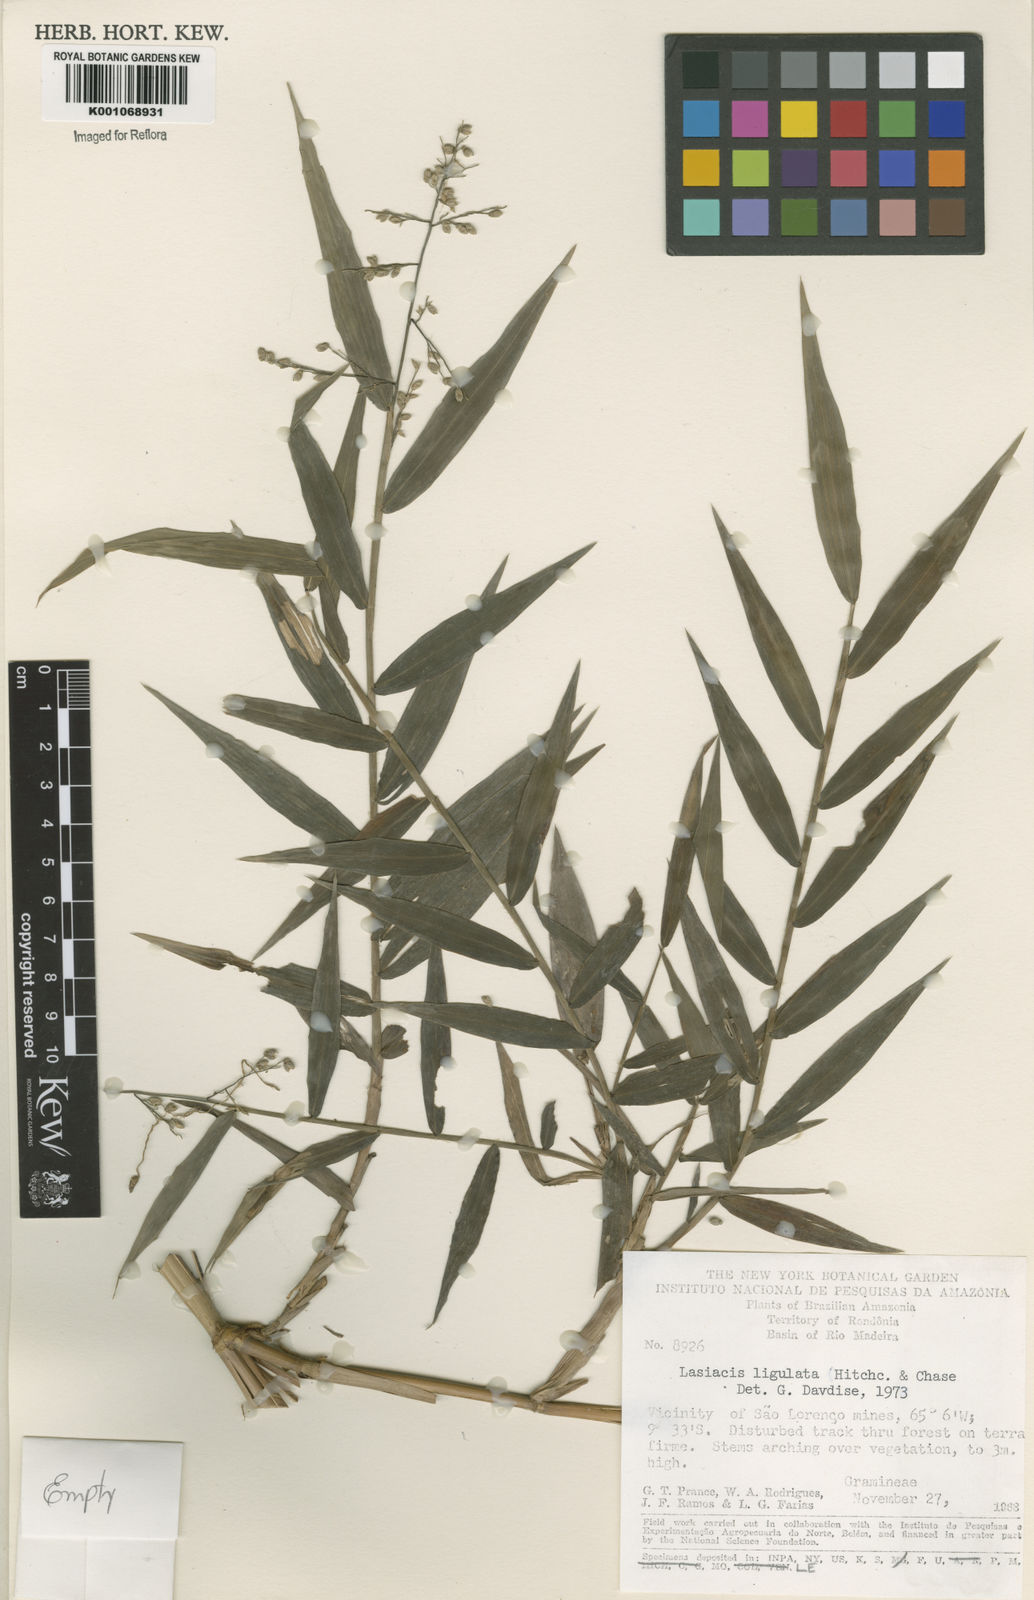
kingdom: Plantae
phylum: Tracheophyta
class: Liliopsida
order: Poales
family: Poaceae
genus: Lasiacis
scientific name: Lasiacis ligulata
